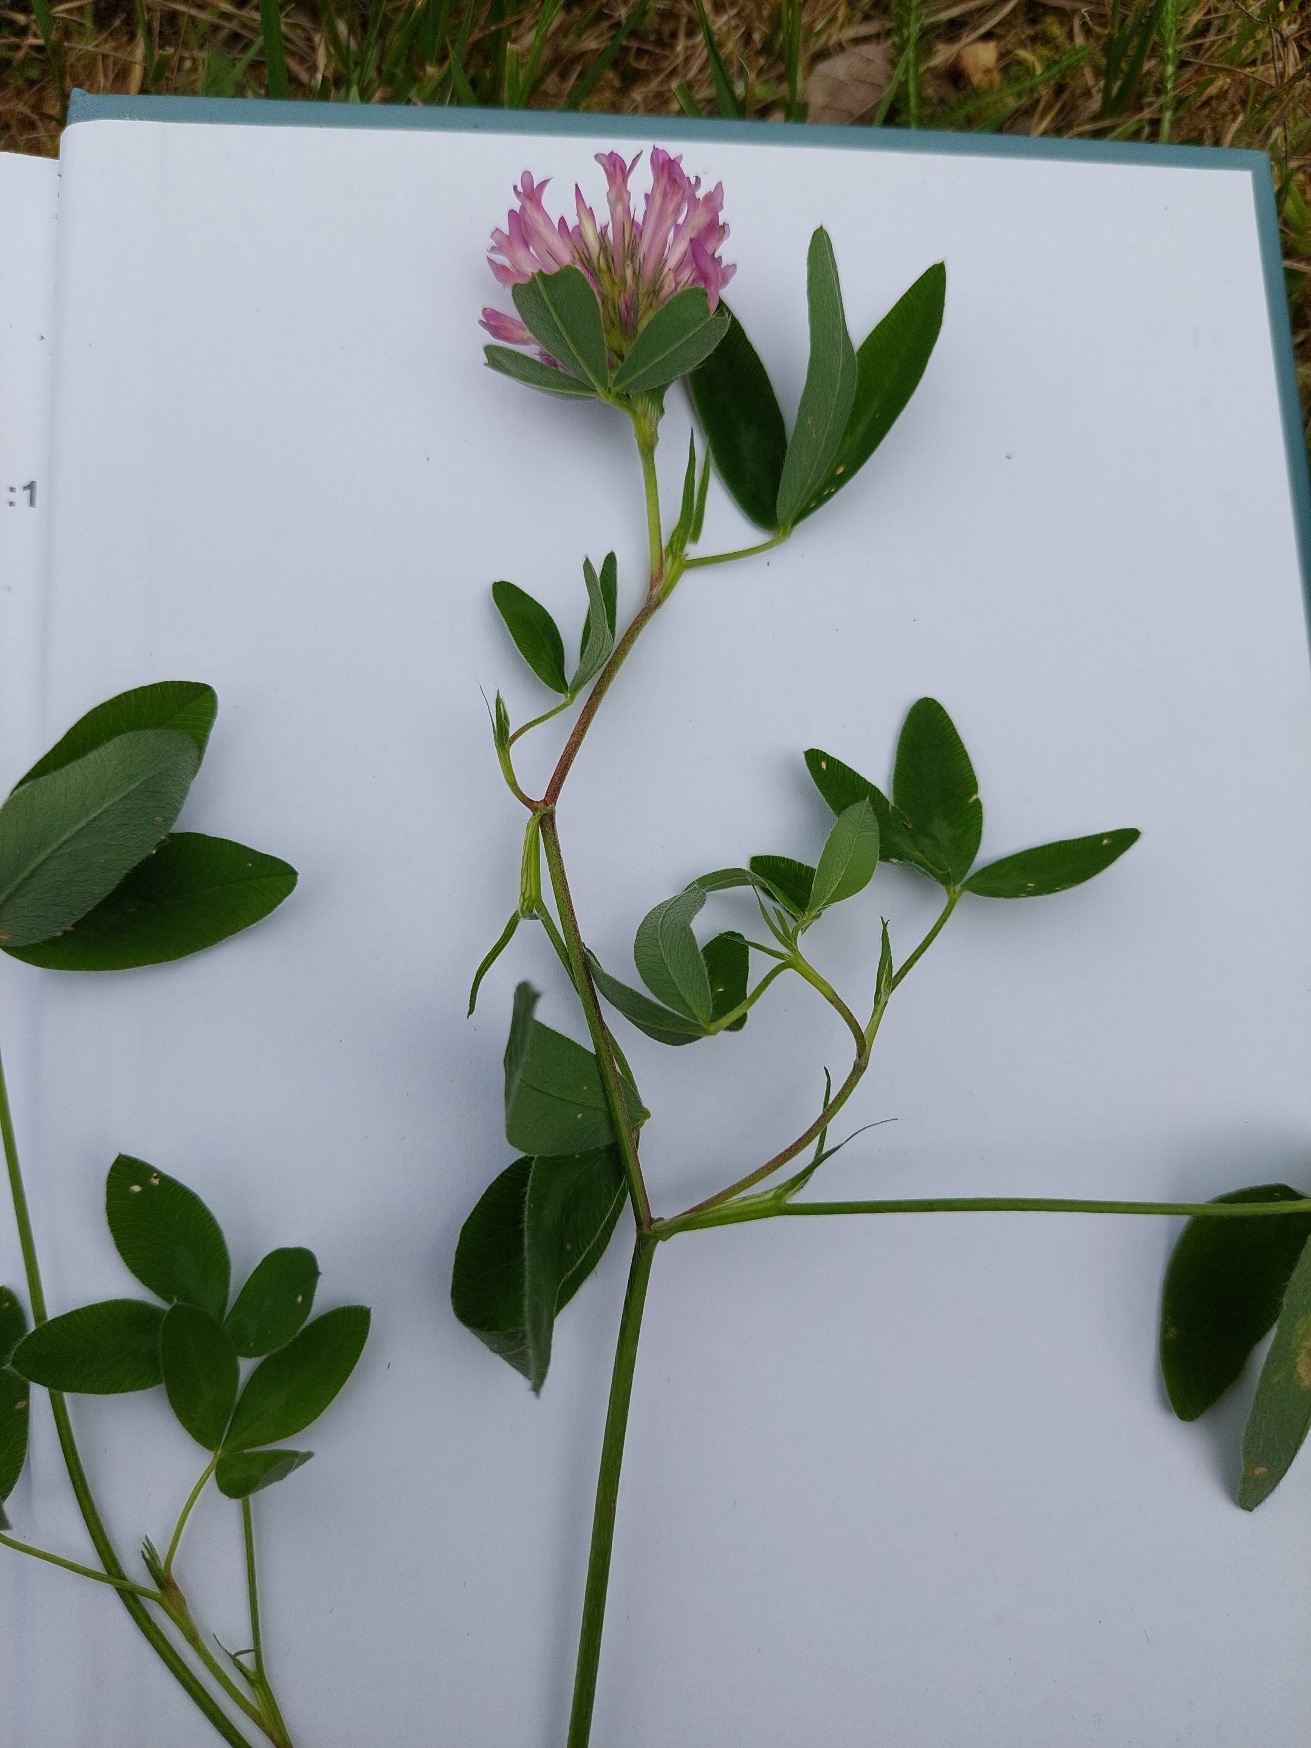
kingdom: Plantae
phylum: Tracheophyta
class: Magnoliopsida
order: Fabales
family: Fabaceae
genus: Trifolium
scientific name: Trifolium pratense
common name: Rød-kløver
